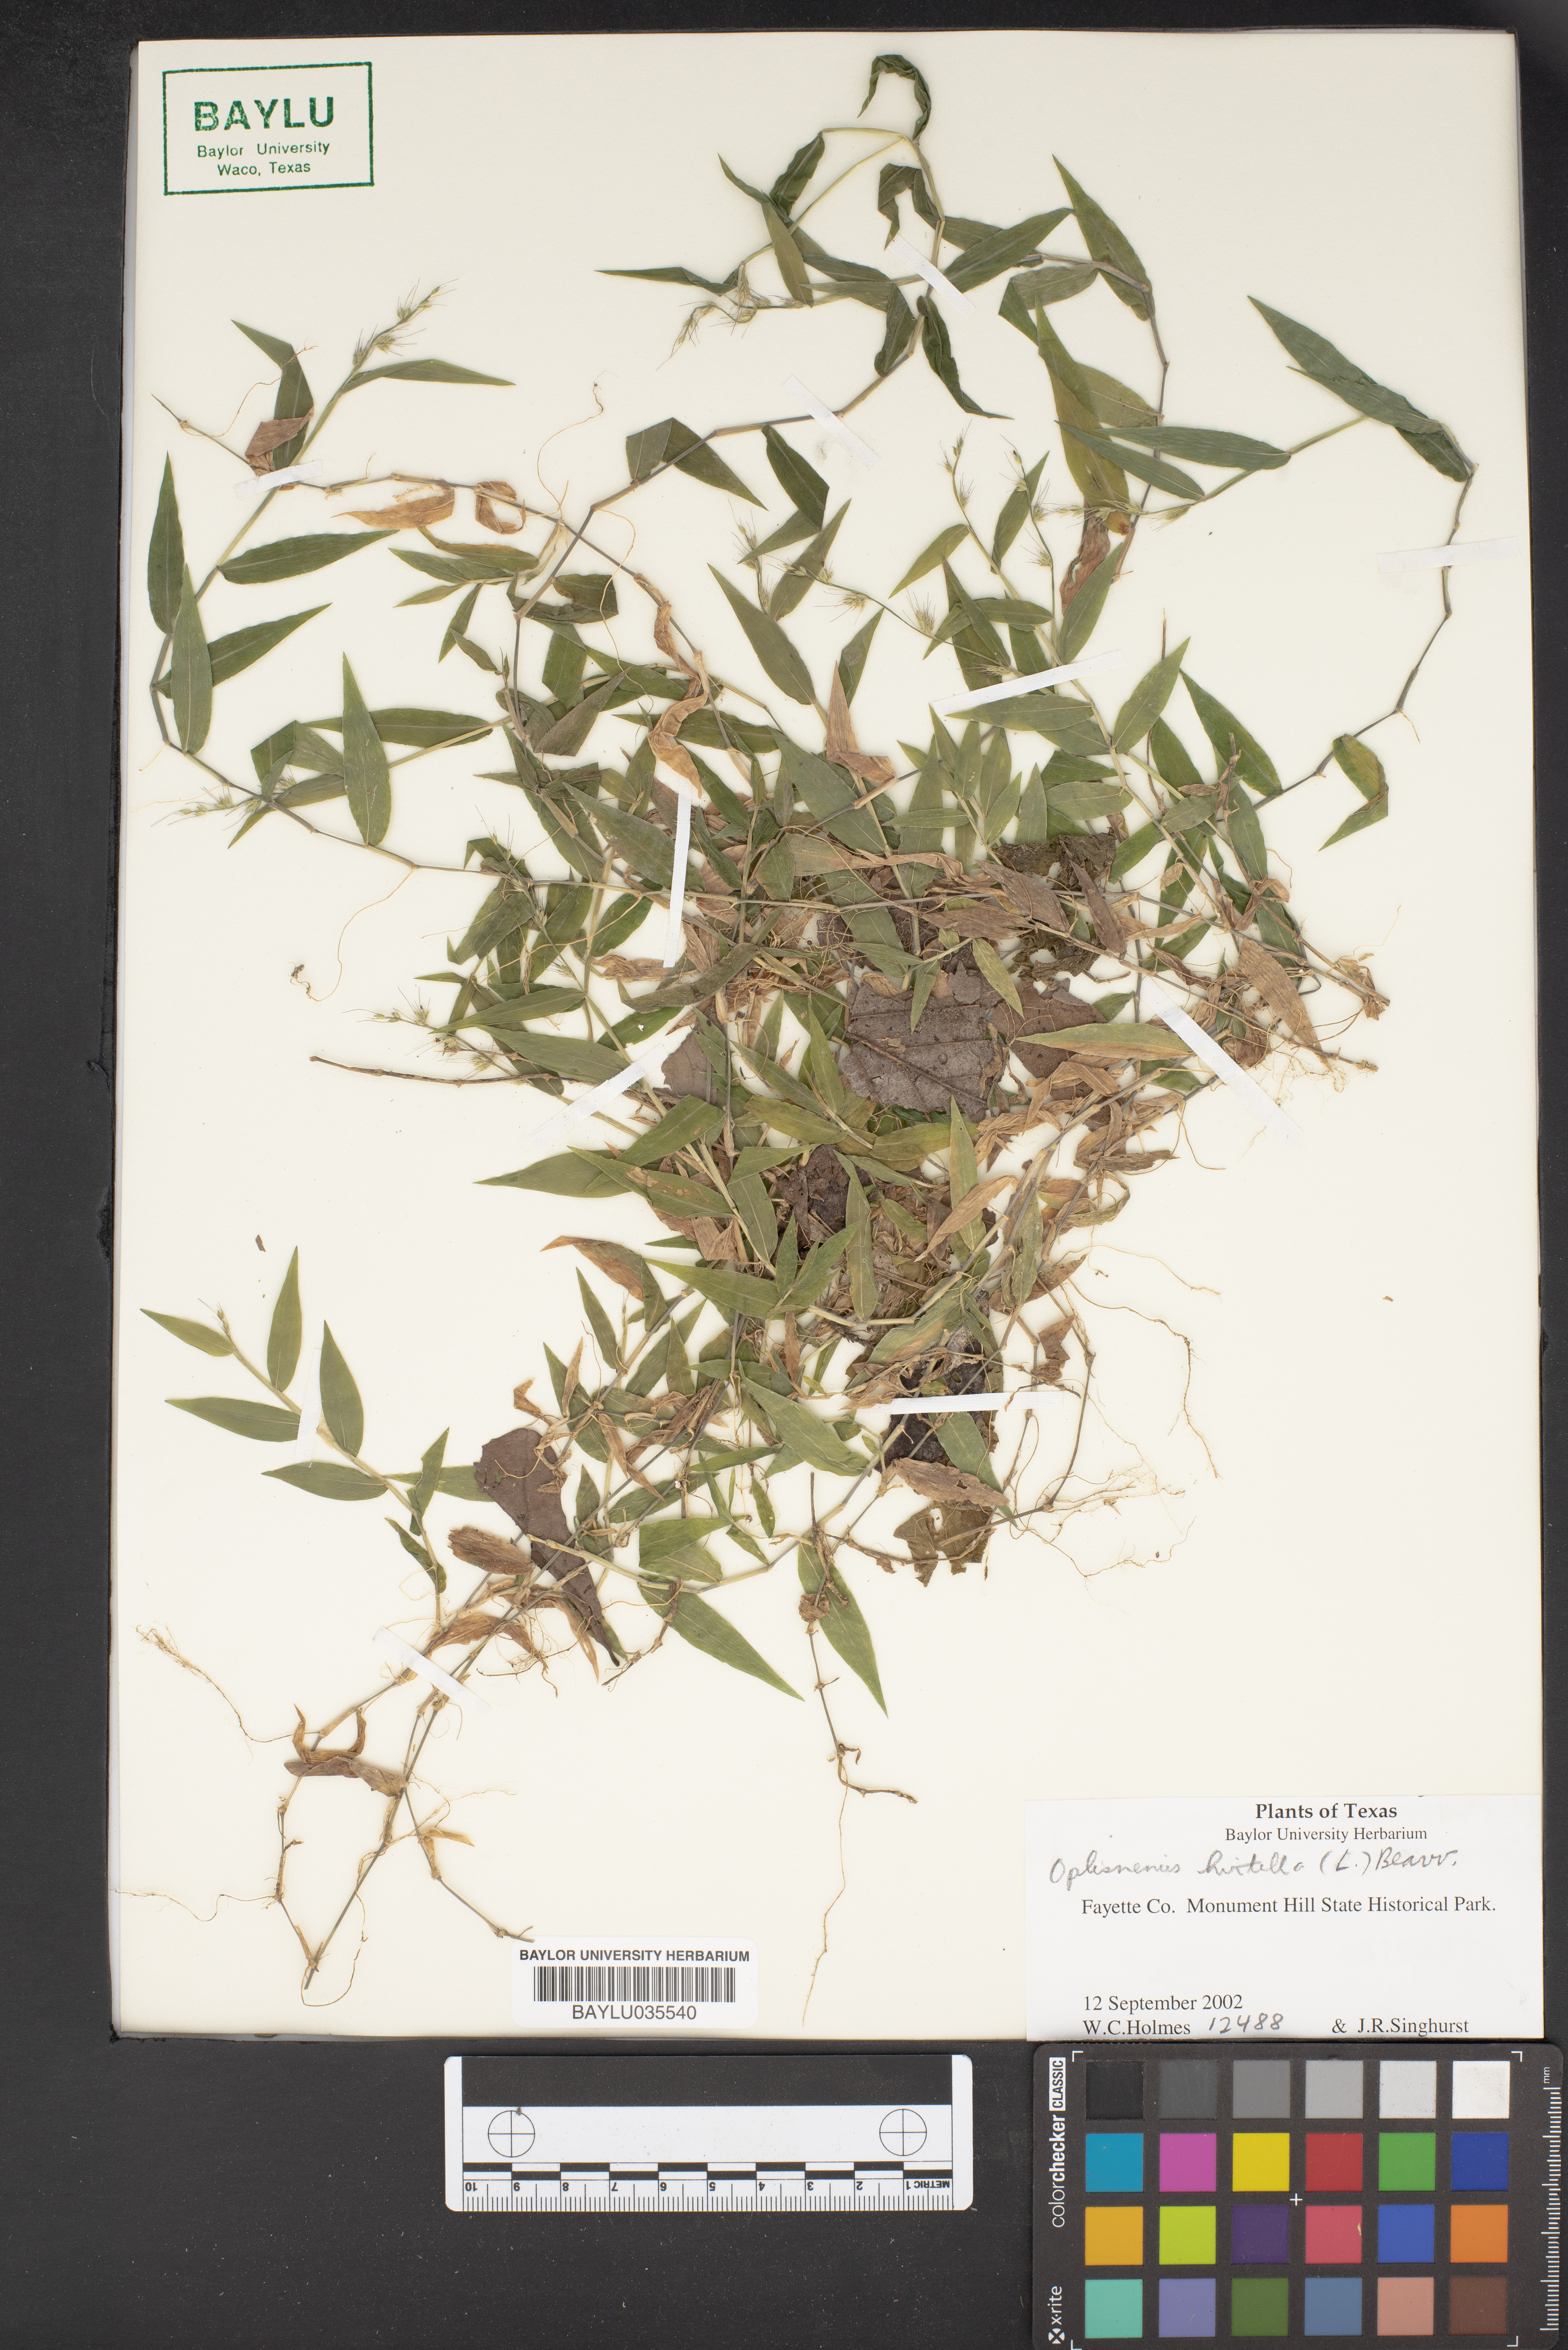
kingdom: Plantae
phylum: Tracheophyta
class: Liliopsida
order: Poales
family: Poaceae
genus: Oplismenus
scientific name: Oplismenus hirtellus
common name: Basketgrass
